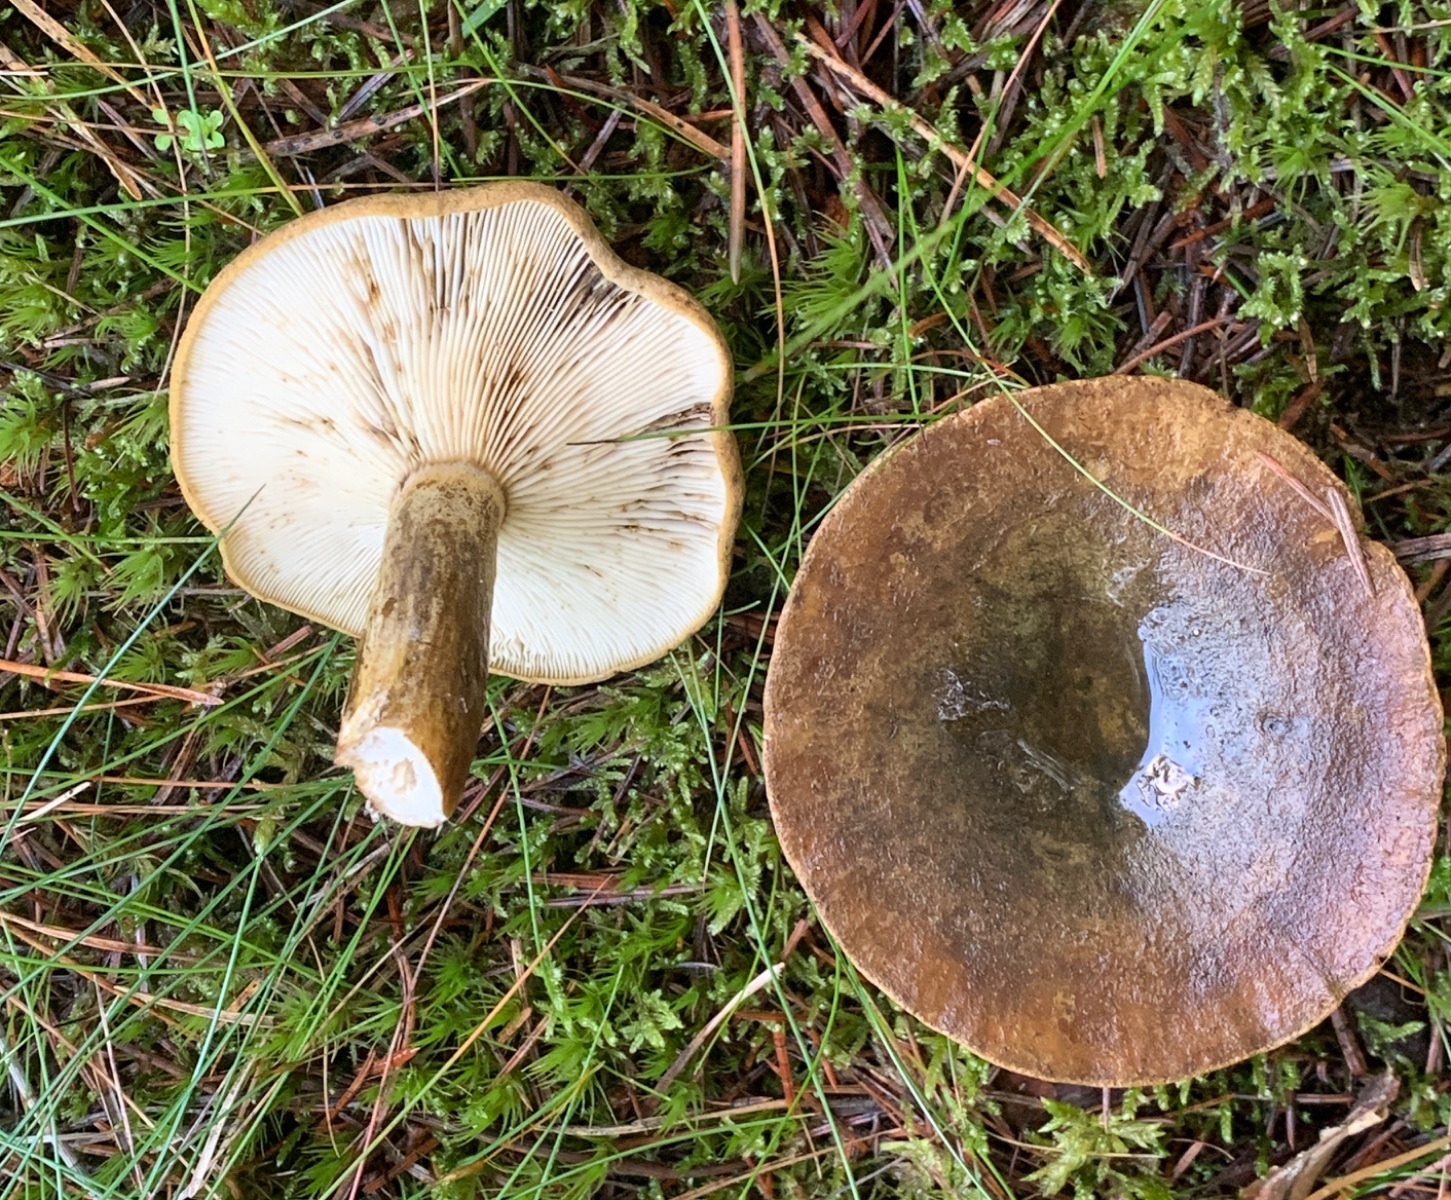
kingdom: Fungi
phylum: Basidiomycota
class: Agaricomycetes
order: Russulales
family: Russulaceae
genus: Lactarius
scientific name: Lactarius necator
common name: manddraber-mælkehat
